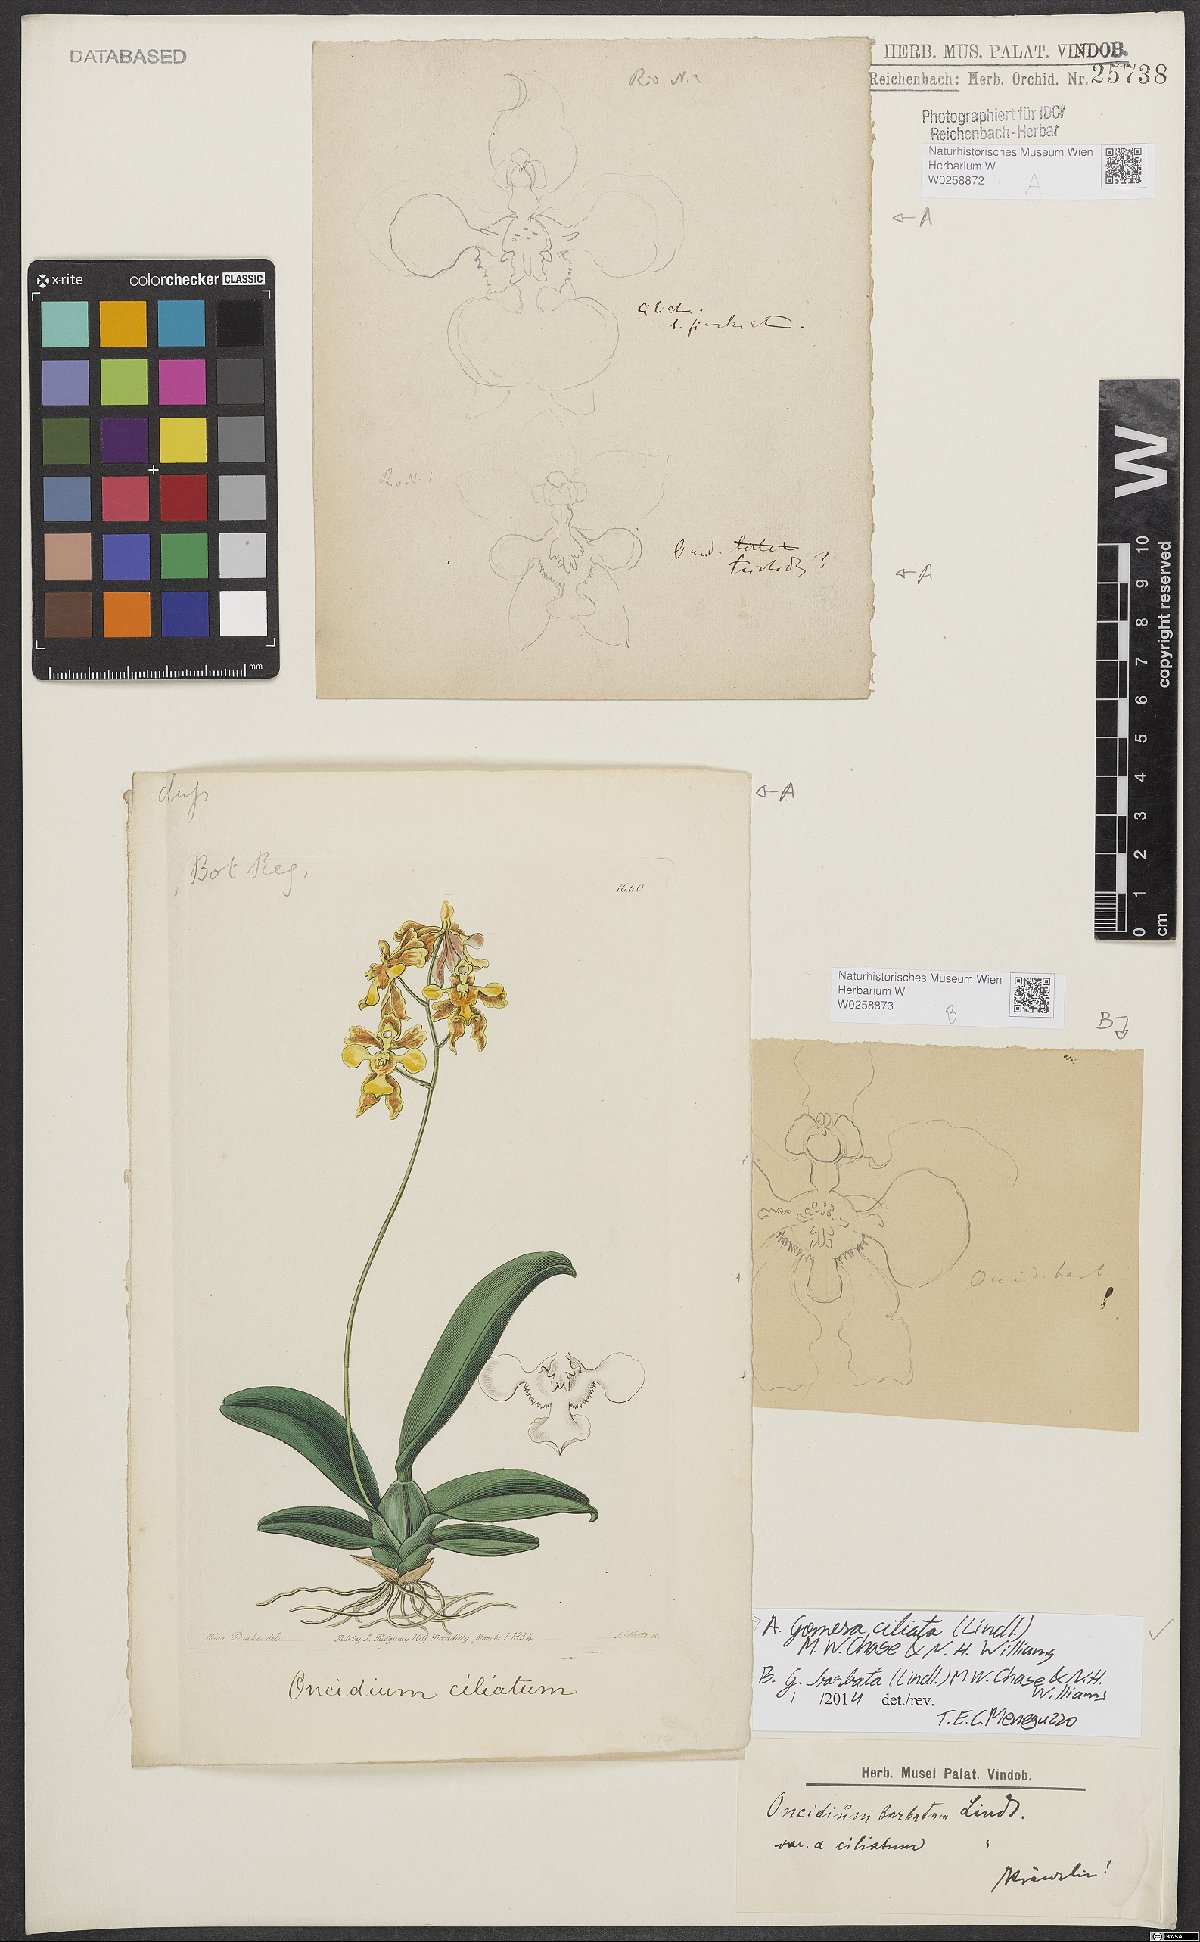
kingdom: Plantae
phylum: Tracheophyta
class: Liliopsida
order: Asparagales
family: Orchidaceae
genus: Gomesa
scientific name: Gomesa barbata
